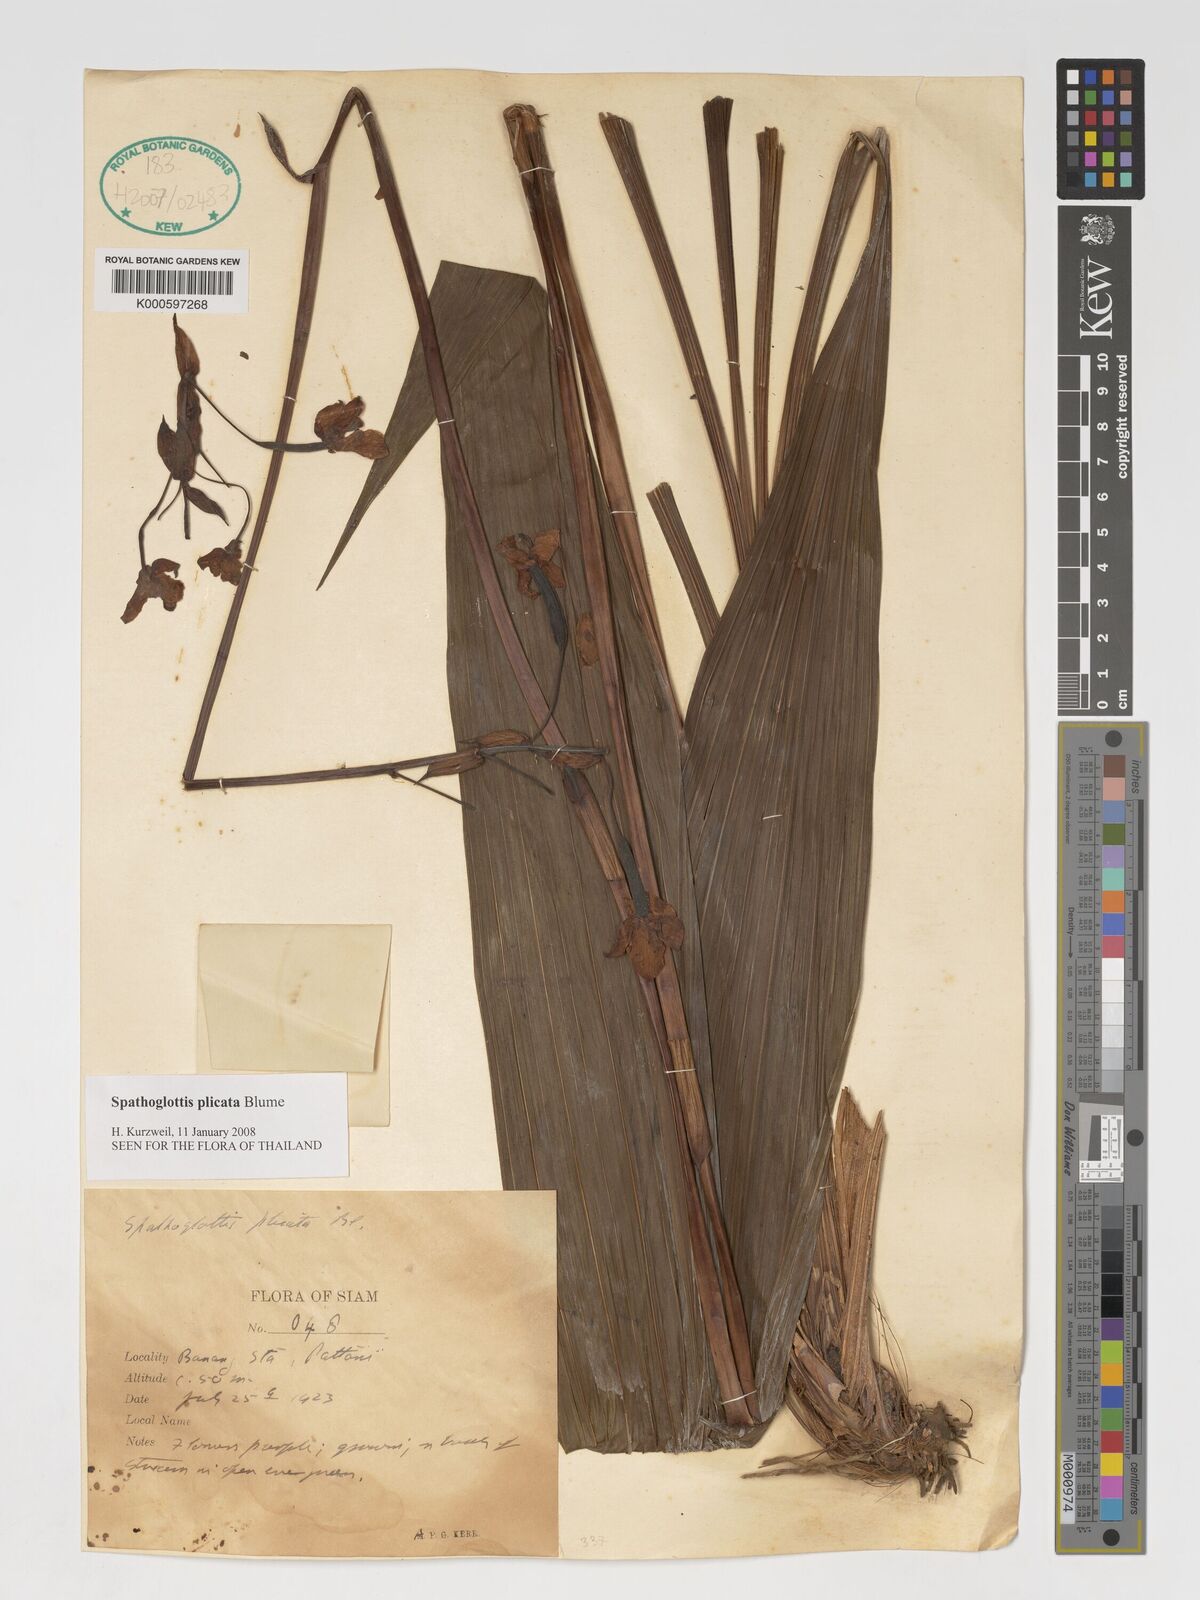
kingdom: Plantae
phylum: Tracheophyta
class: Liliopsida
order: Asparagales
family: Orchidaceae
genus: Spathoglottis
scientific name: Spathoglottis plicata
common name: Philippine ground orchid
